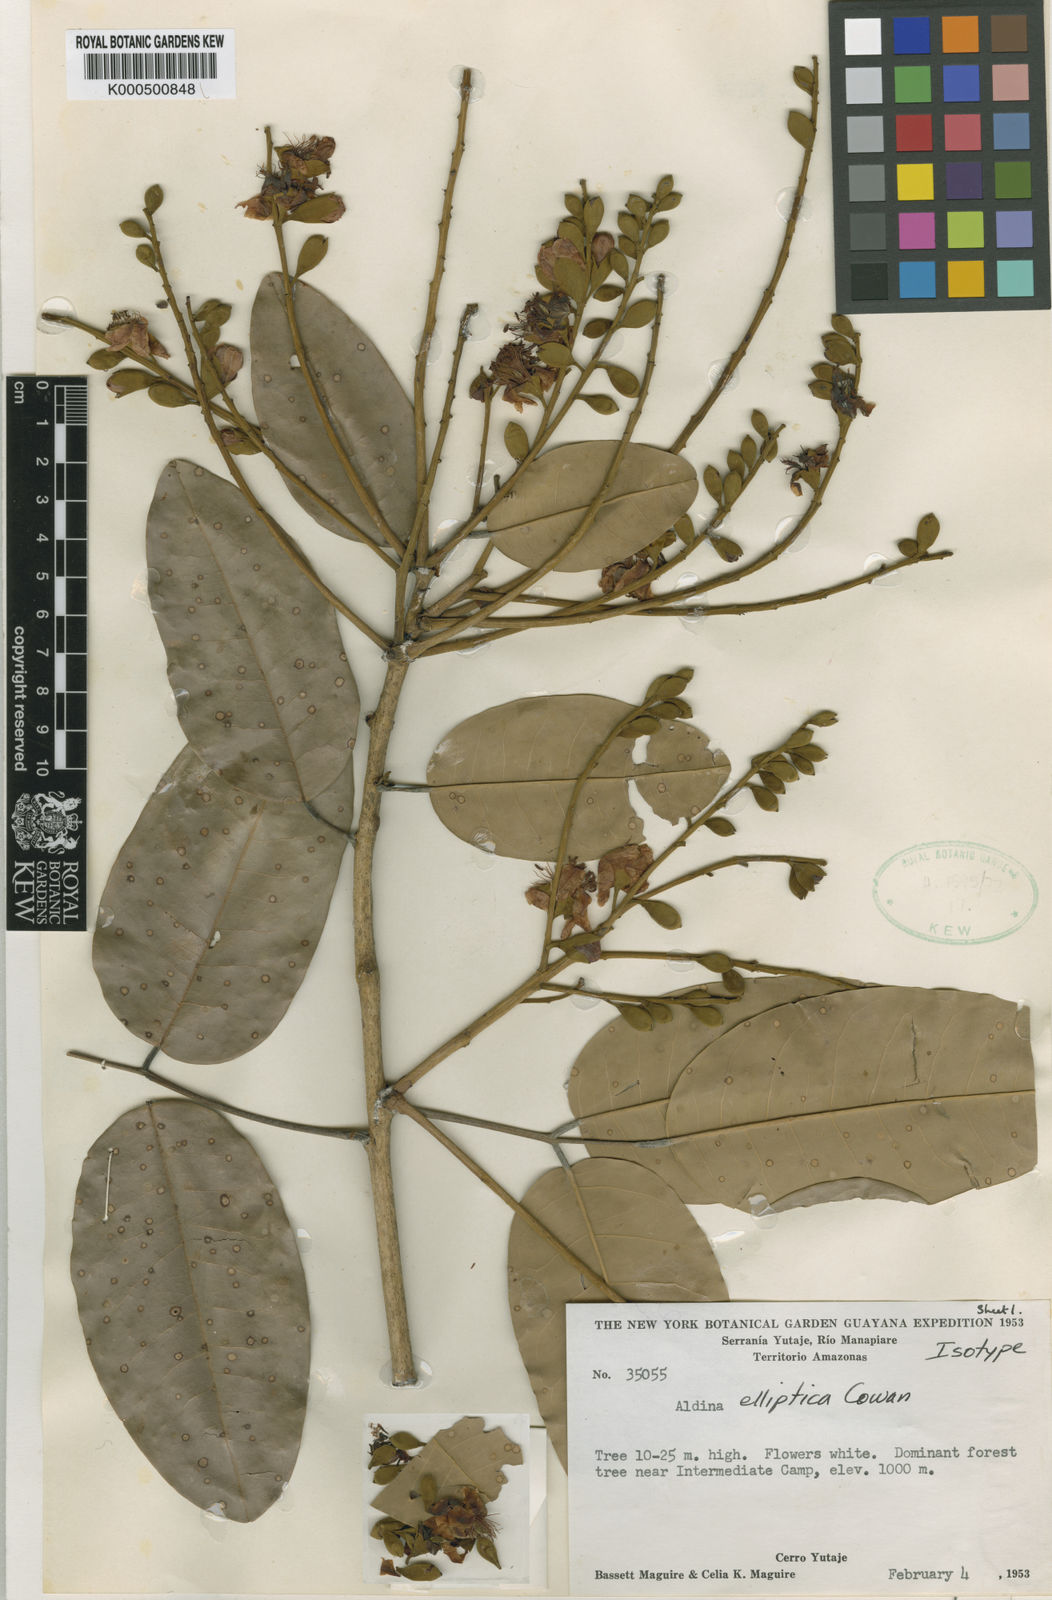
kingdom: Plantae
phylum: Tracheophyta
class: Magnoliopsida
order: Fabales
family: Fabaceae
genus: Aldina
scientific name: Aldina elliptica
